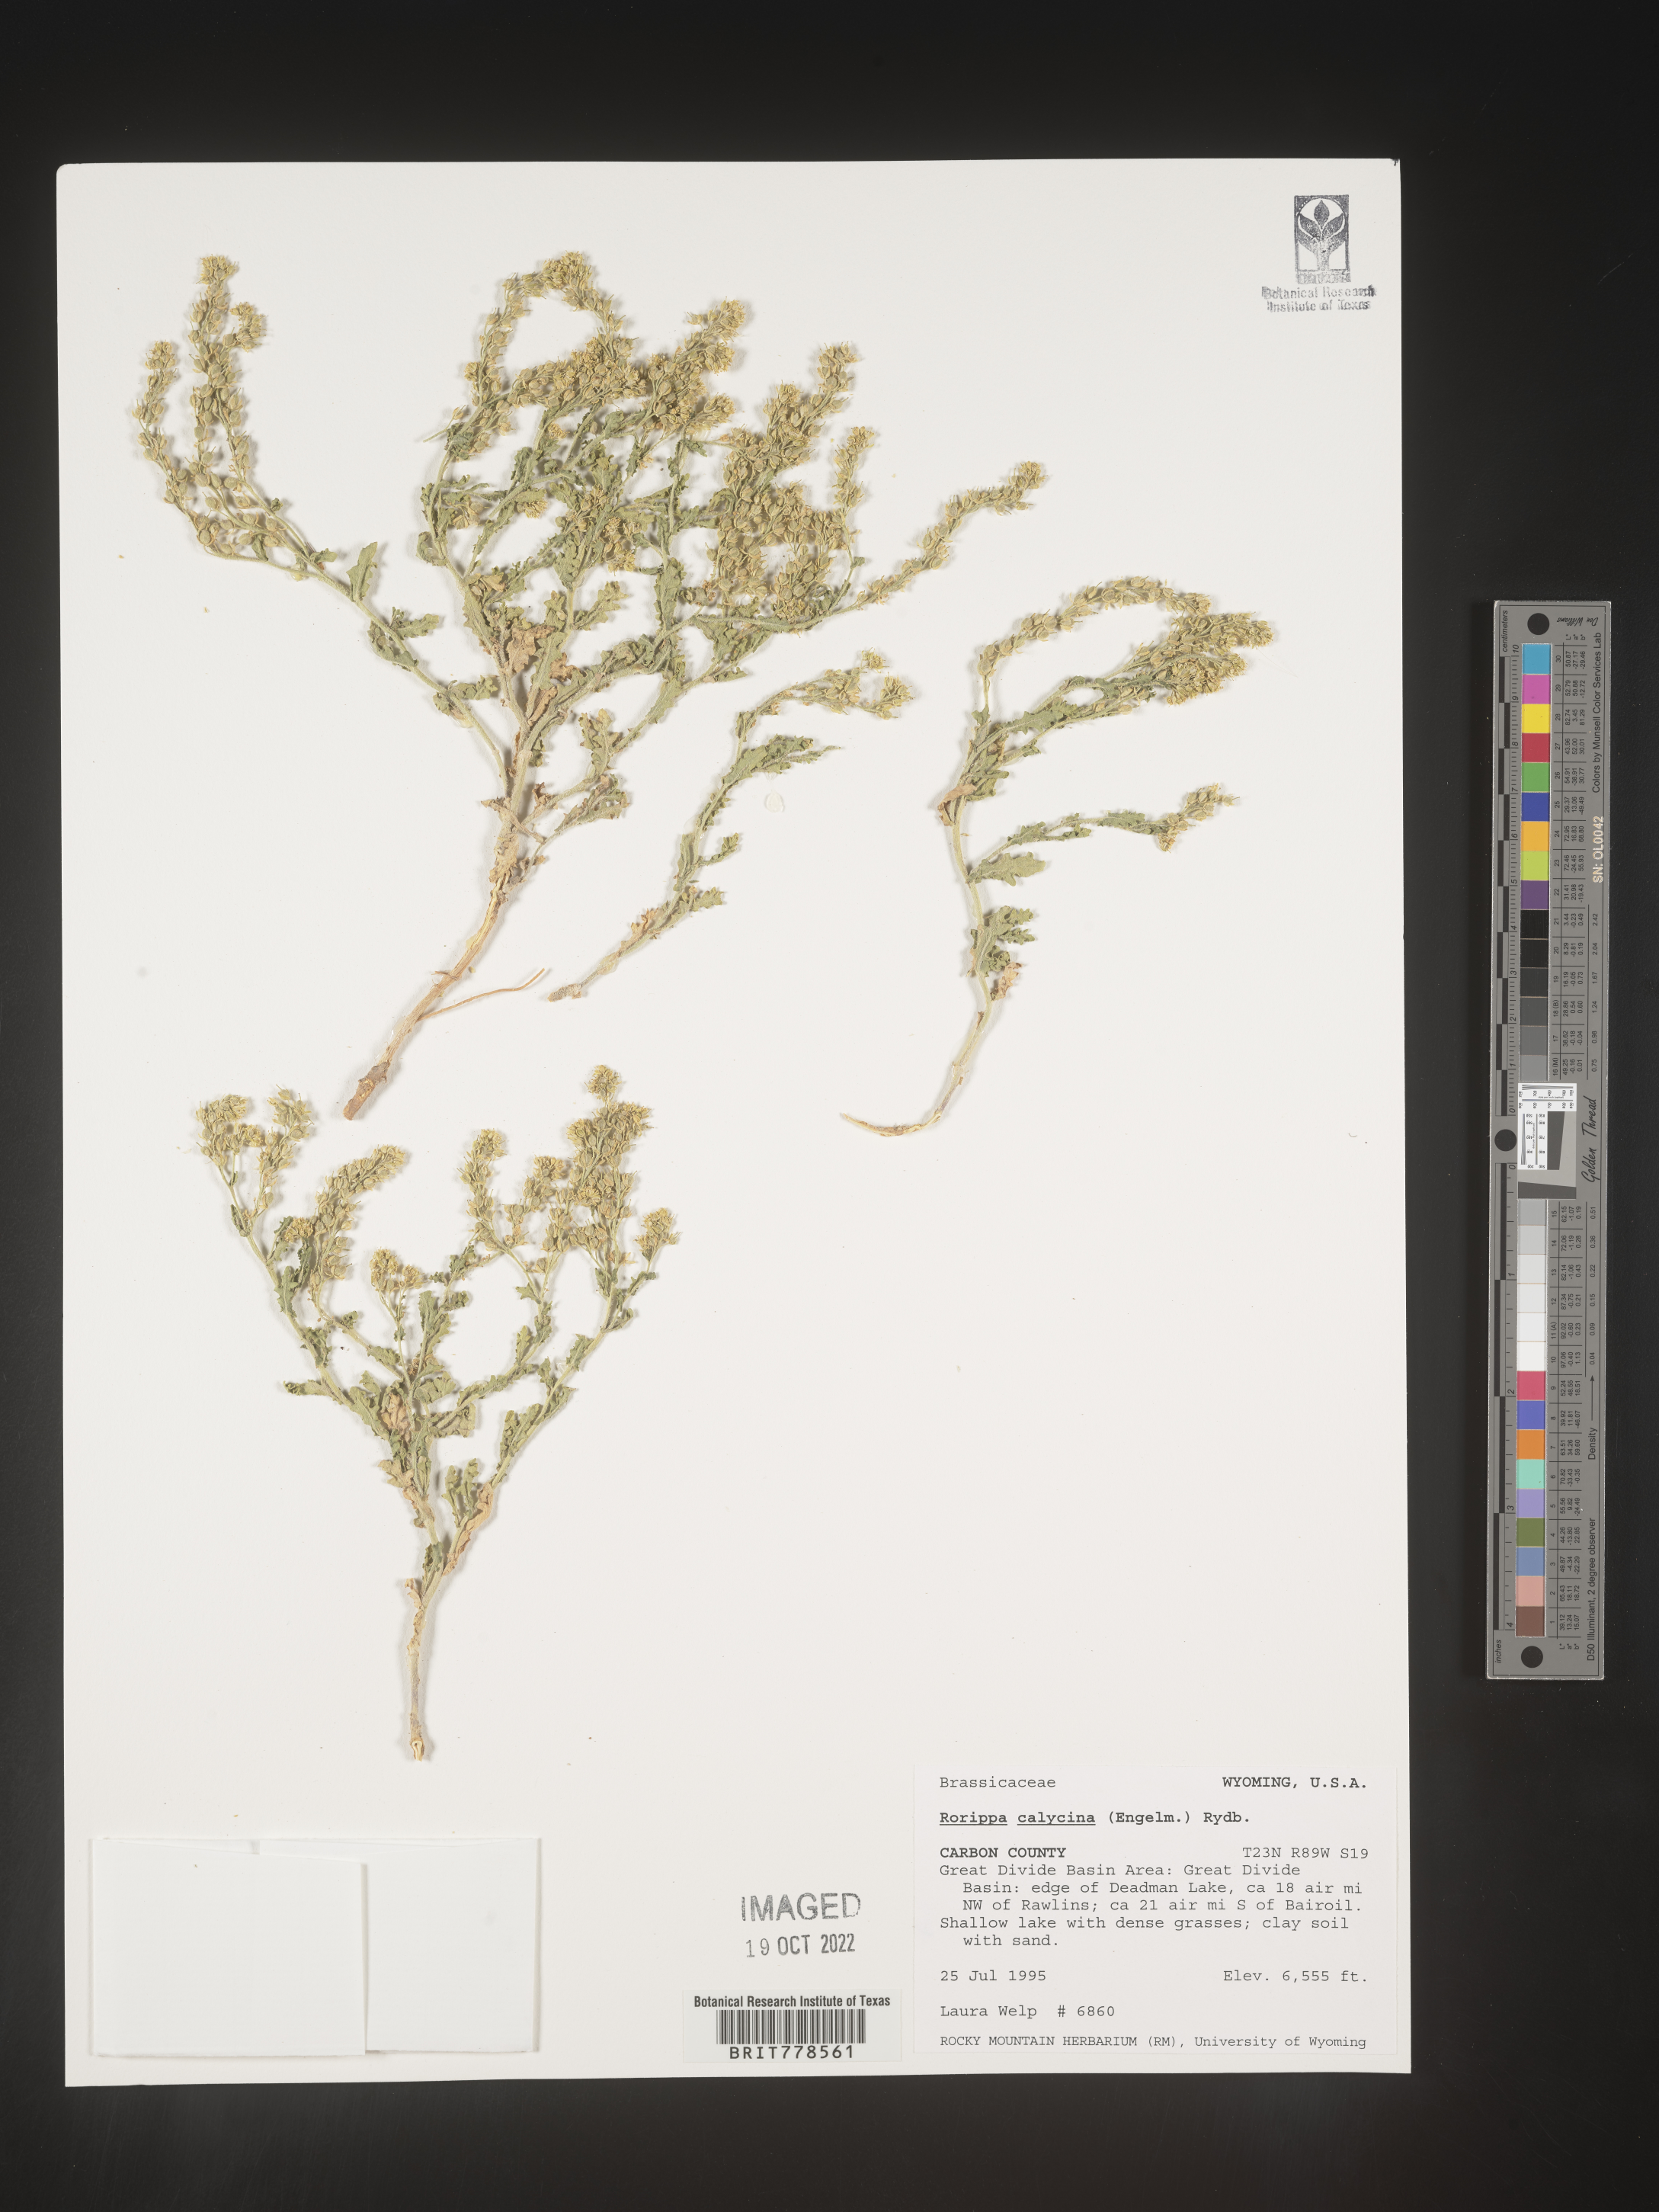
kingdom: Plantae
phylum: Tracheophyta
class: Magnoliopsida
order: Brassicales
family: Brassicaceae
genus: Rorippa
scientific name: Rorippa
